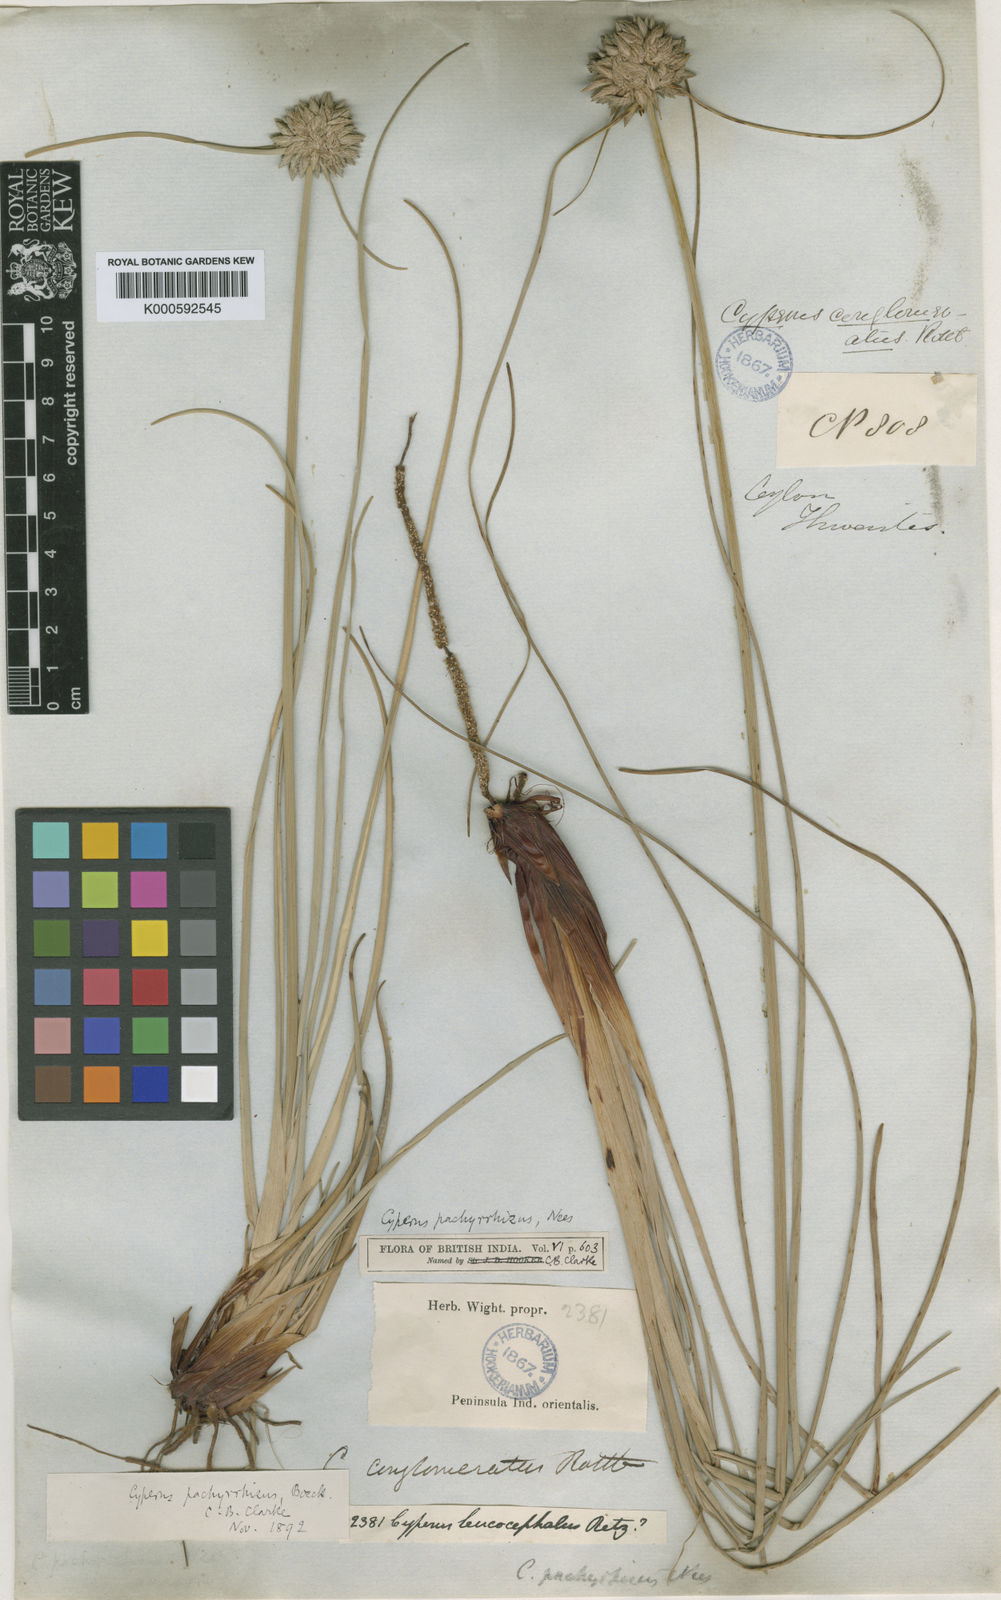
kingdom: Plantae
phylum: Tracheophyta
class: Liliopsida
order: Poales
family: Cyperaceae
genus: Cyperus
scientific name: Cyperus
